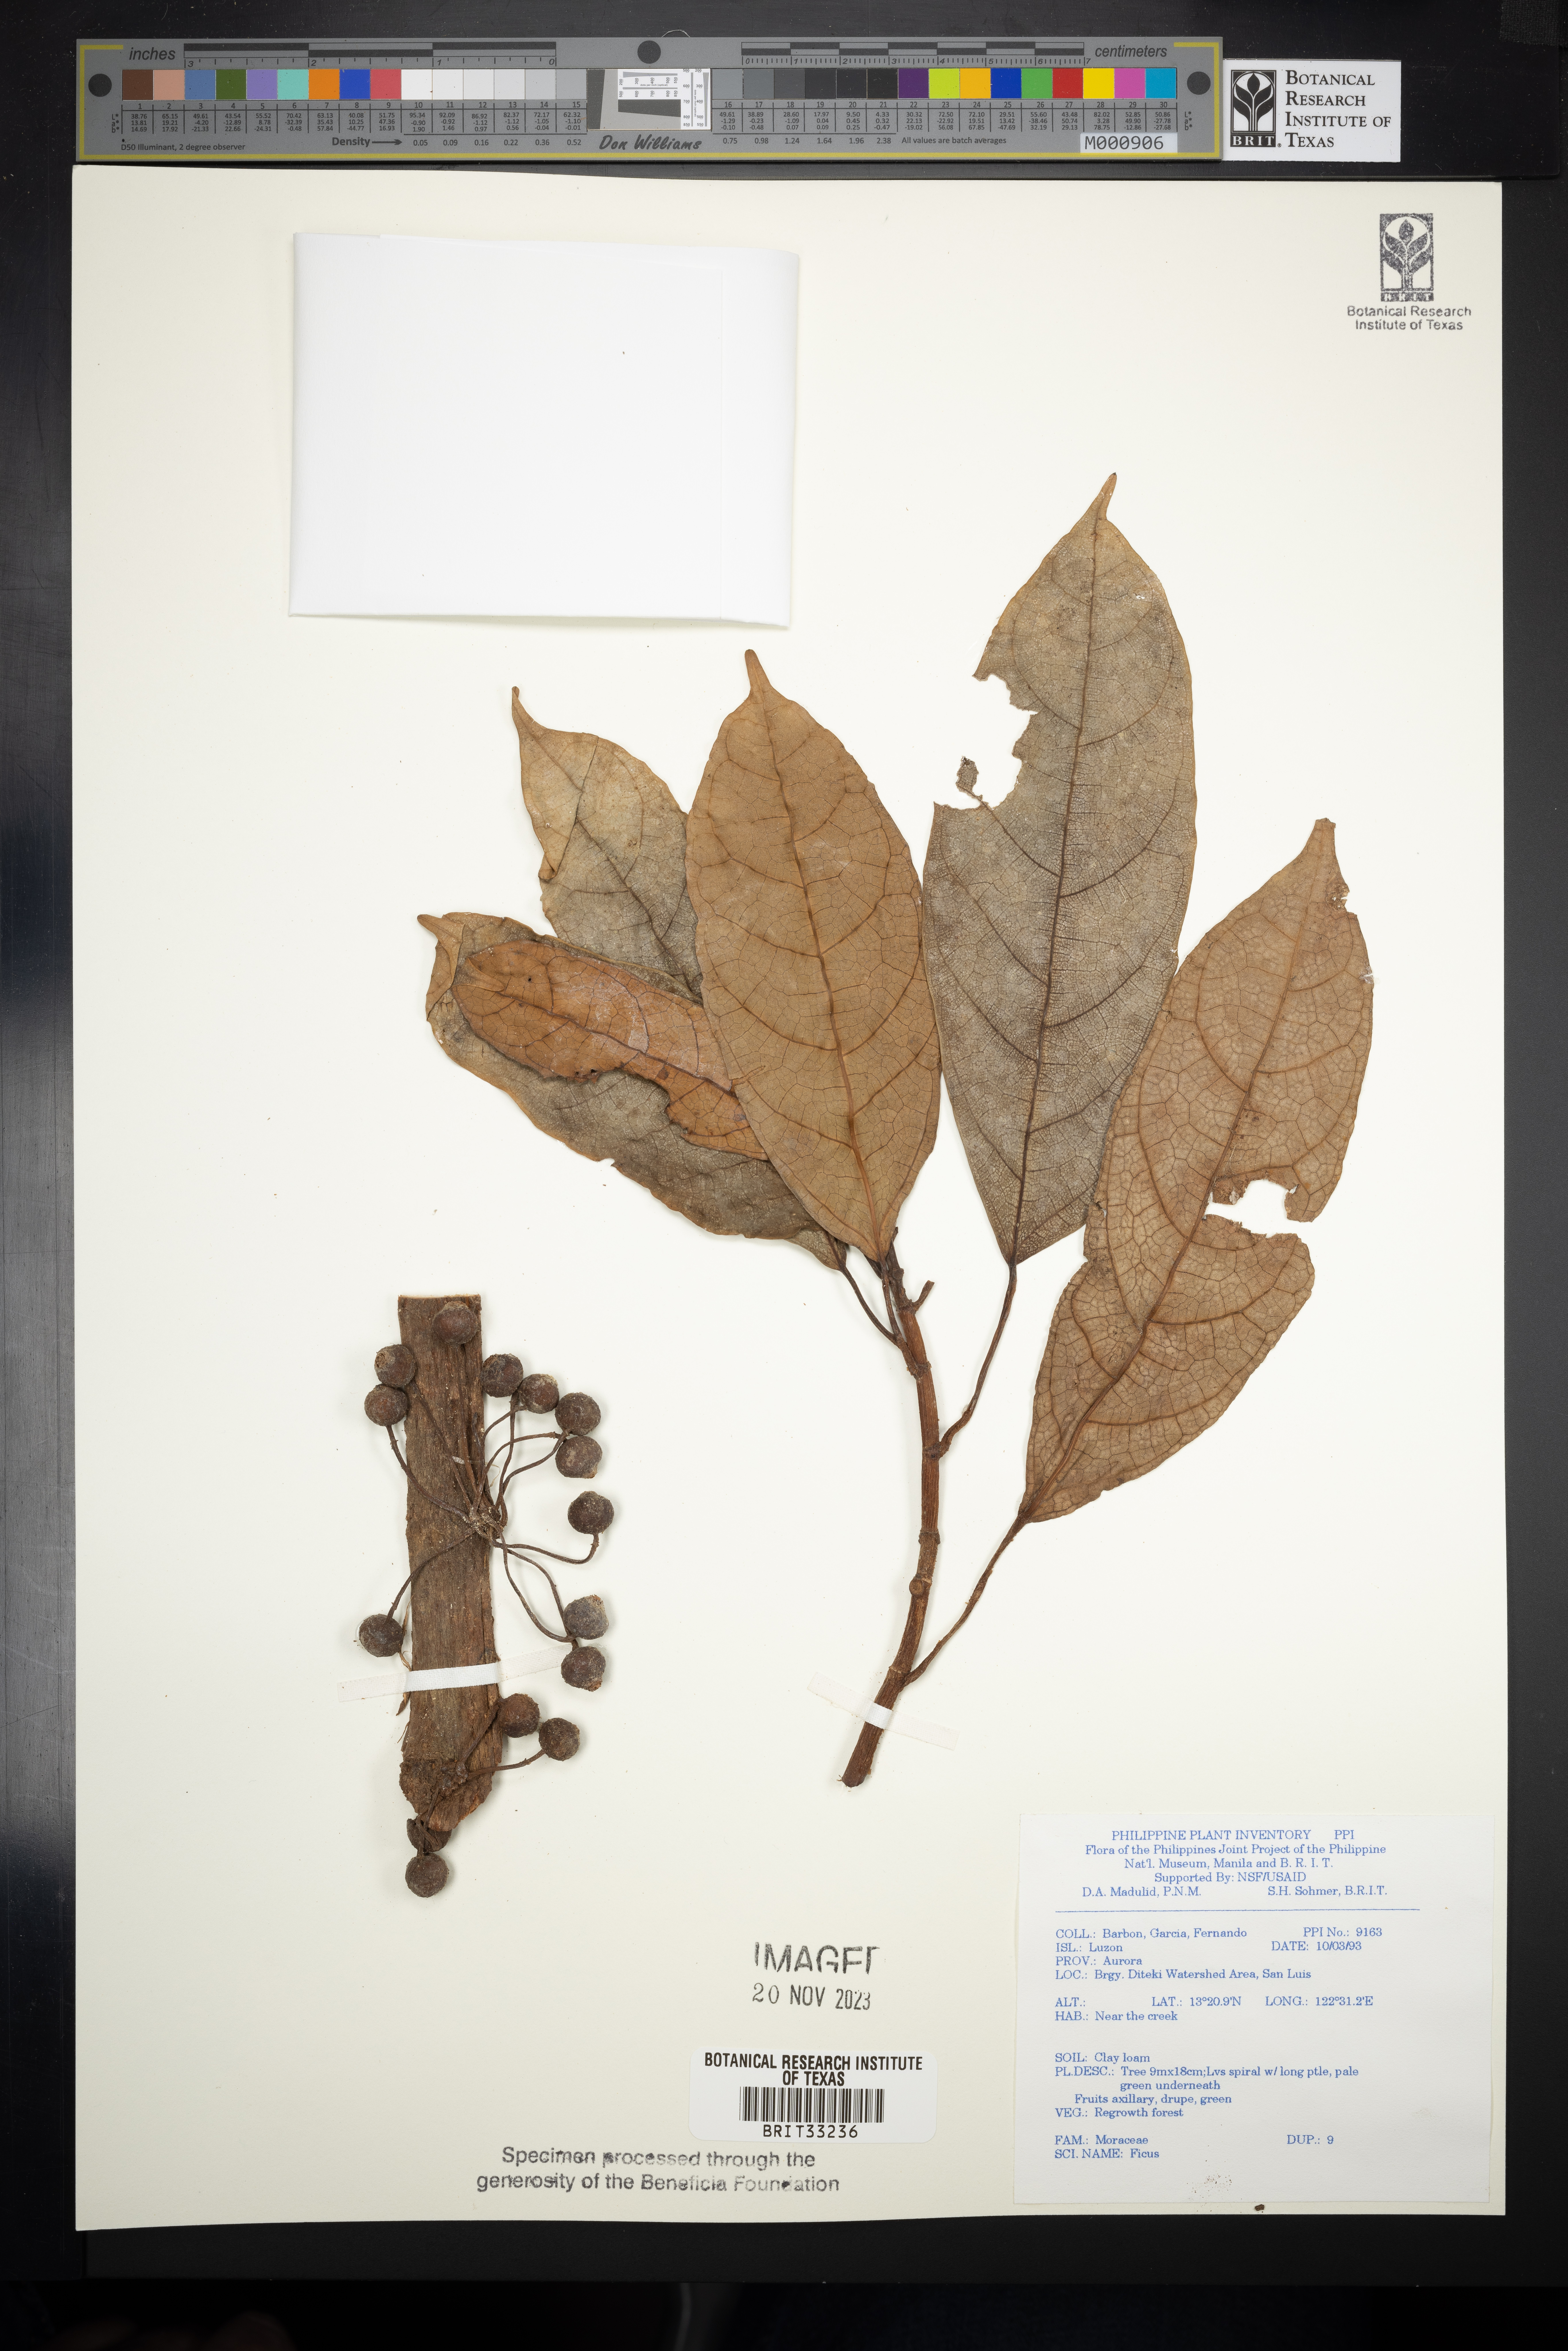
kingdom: Plantae
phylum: Tracheophyta
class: Magnoliopsida
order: Rosales
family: Moraceae
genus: Ficus
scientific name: Ficus
